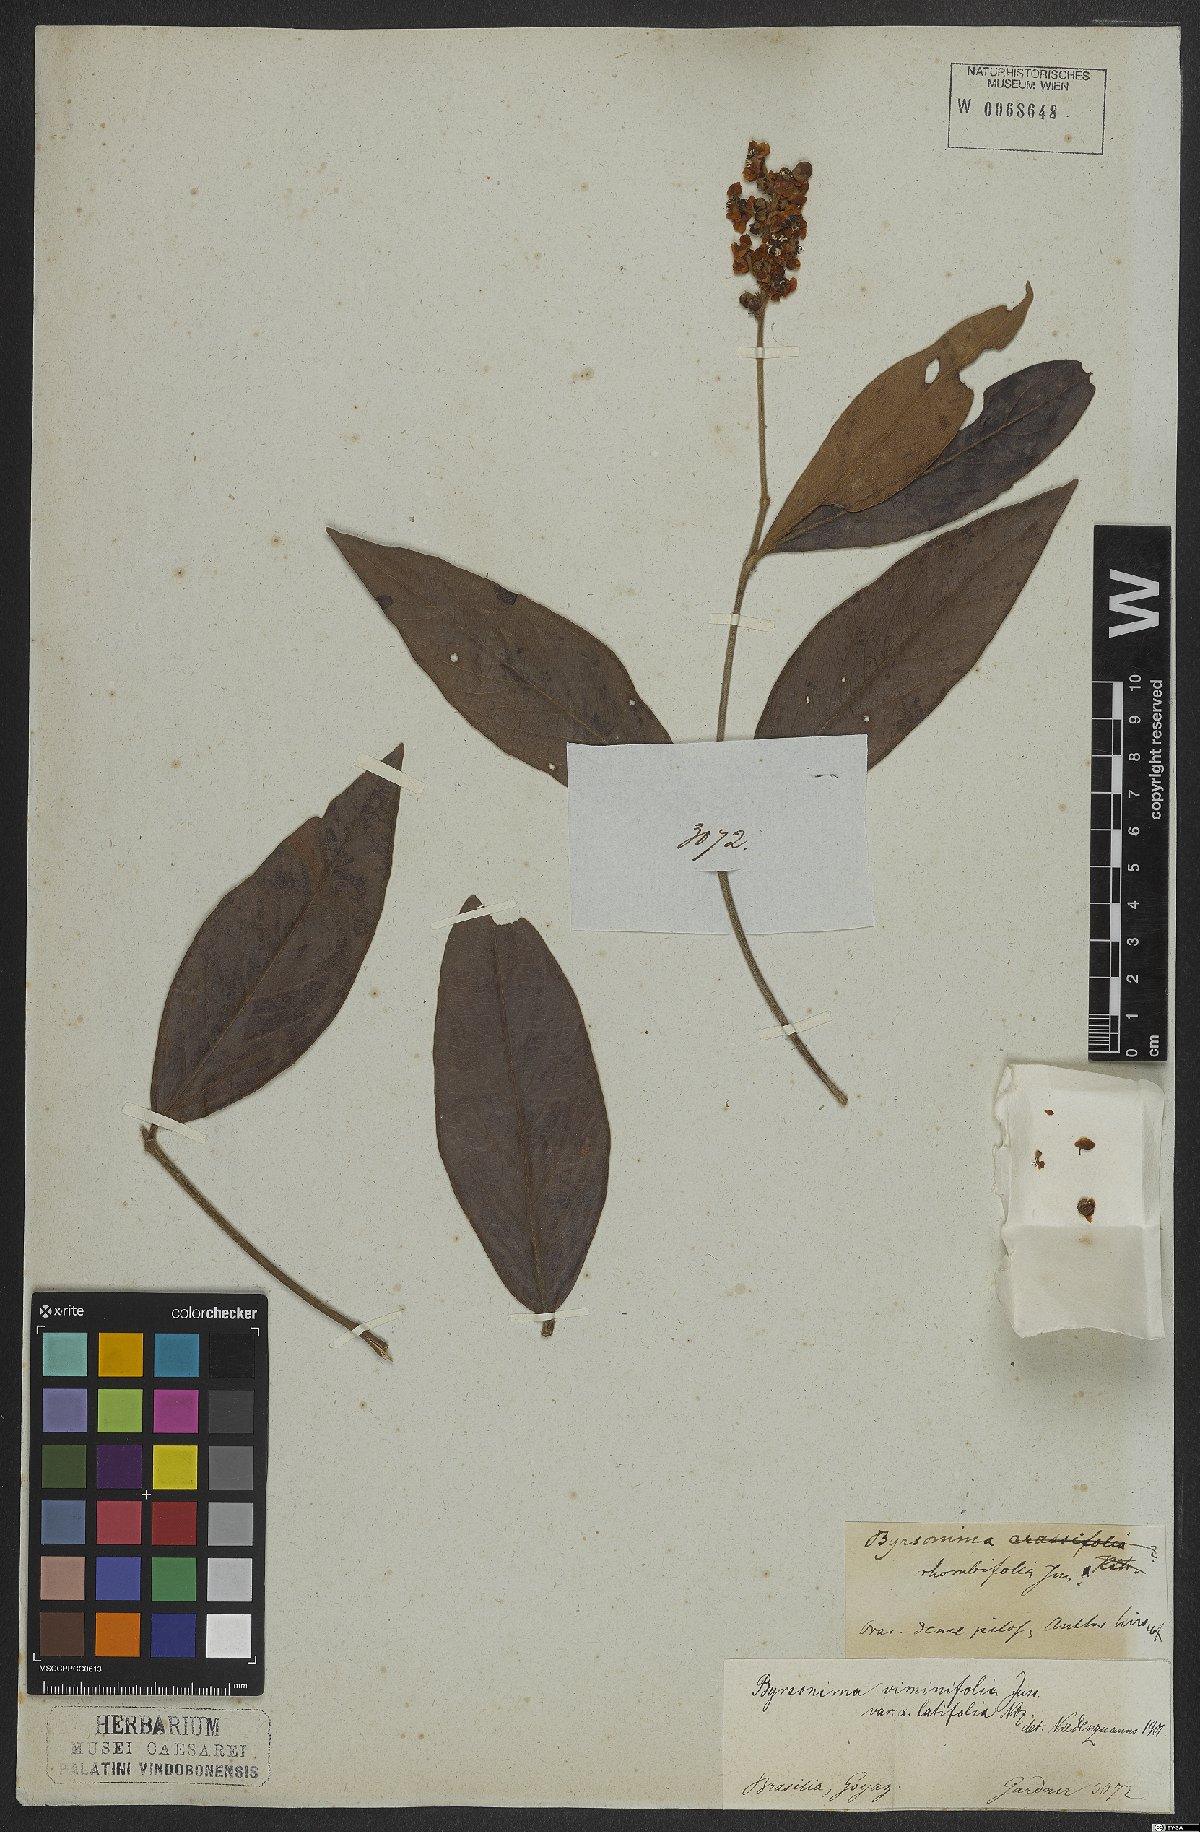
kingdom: Plantae
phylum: Tracheophyta
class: Magnoliopsida
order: Malpighiales
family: Malpighiaceae
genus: Byrsonima
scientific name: Byrsonima viminifolia
